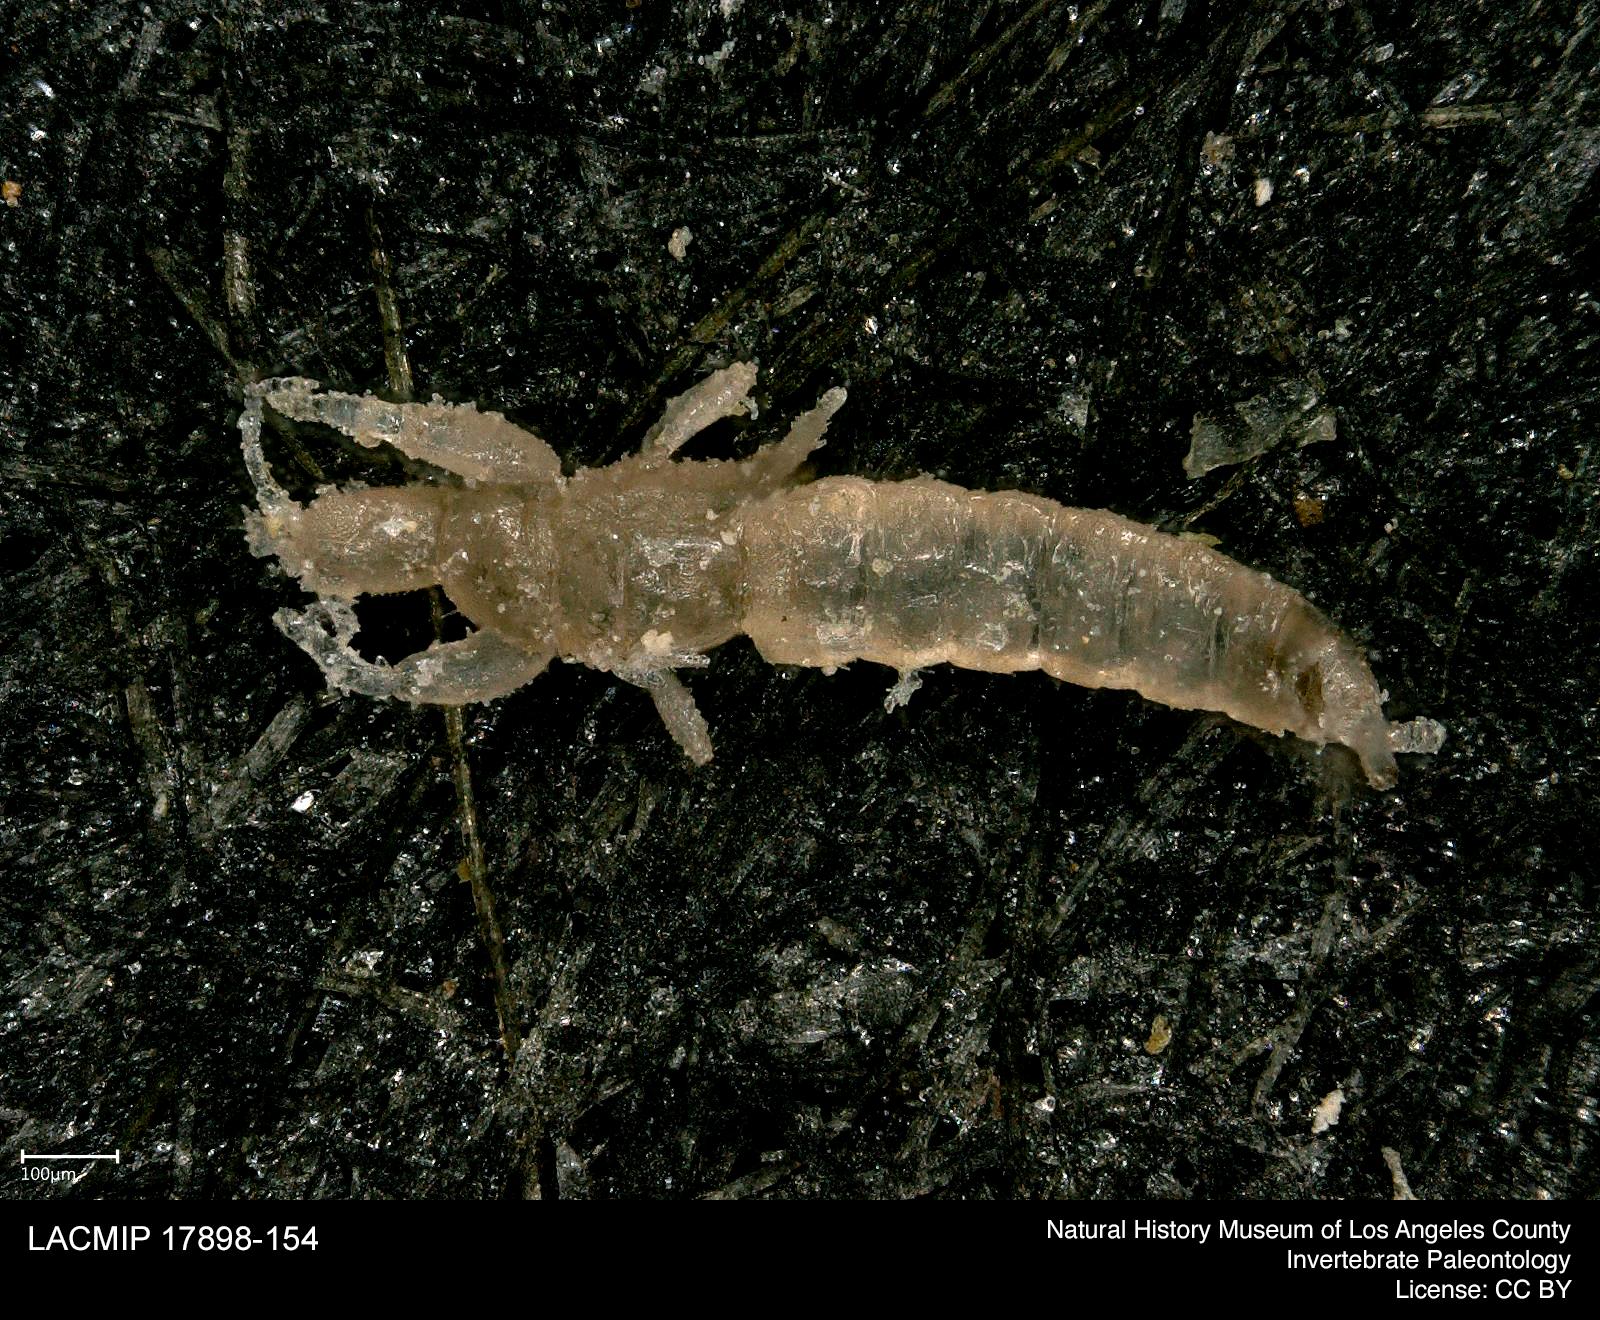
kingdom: Animalia
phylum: Arthropoda
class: Insecta
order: Thysanoptera
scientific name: Thysanoptera
